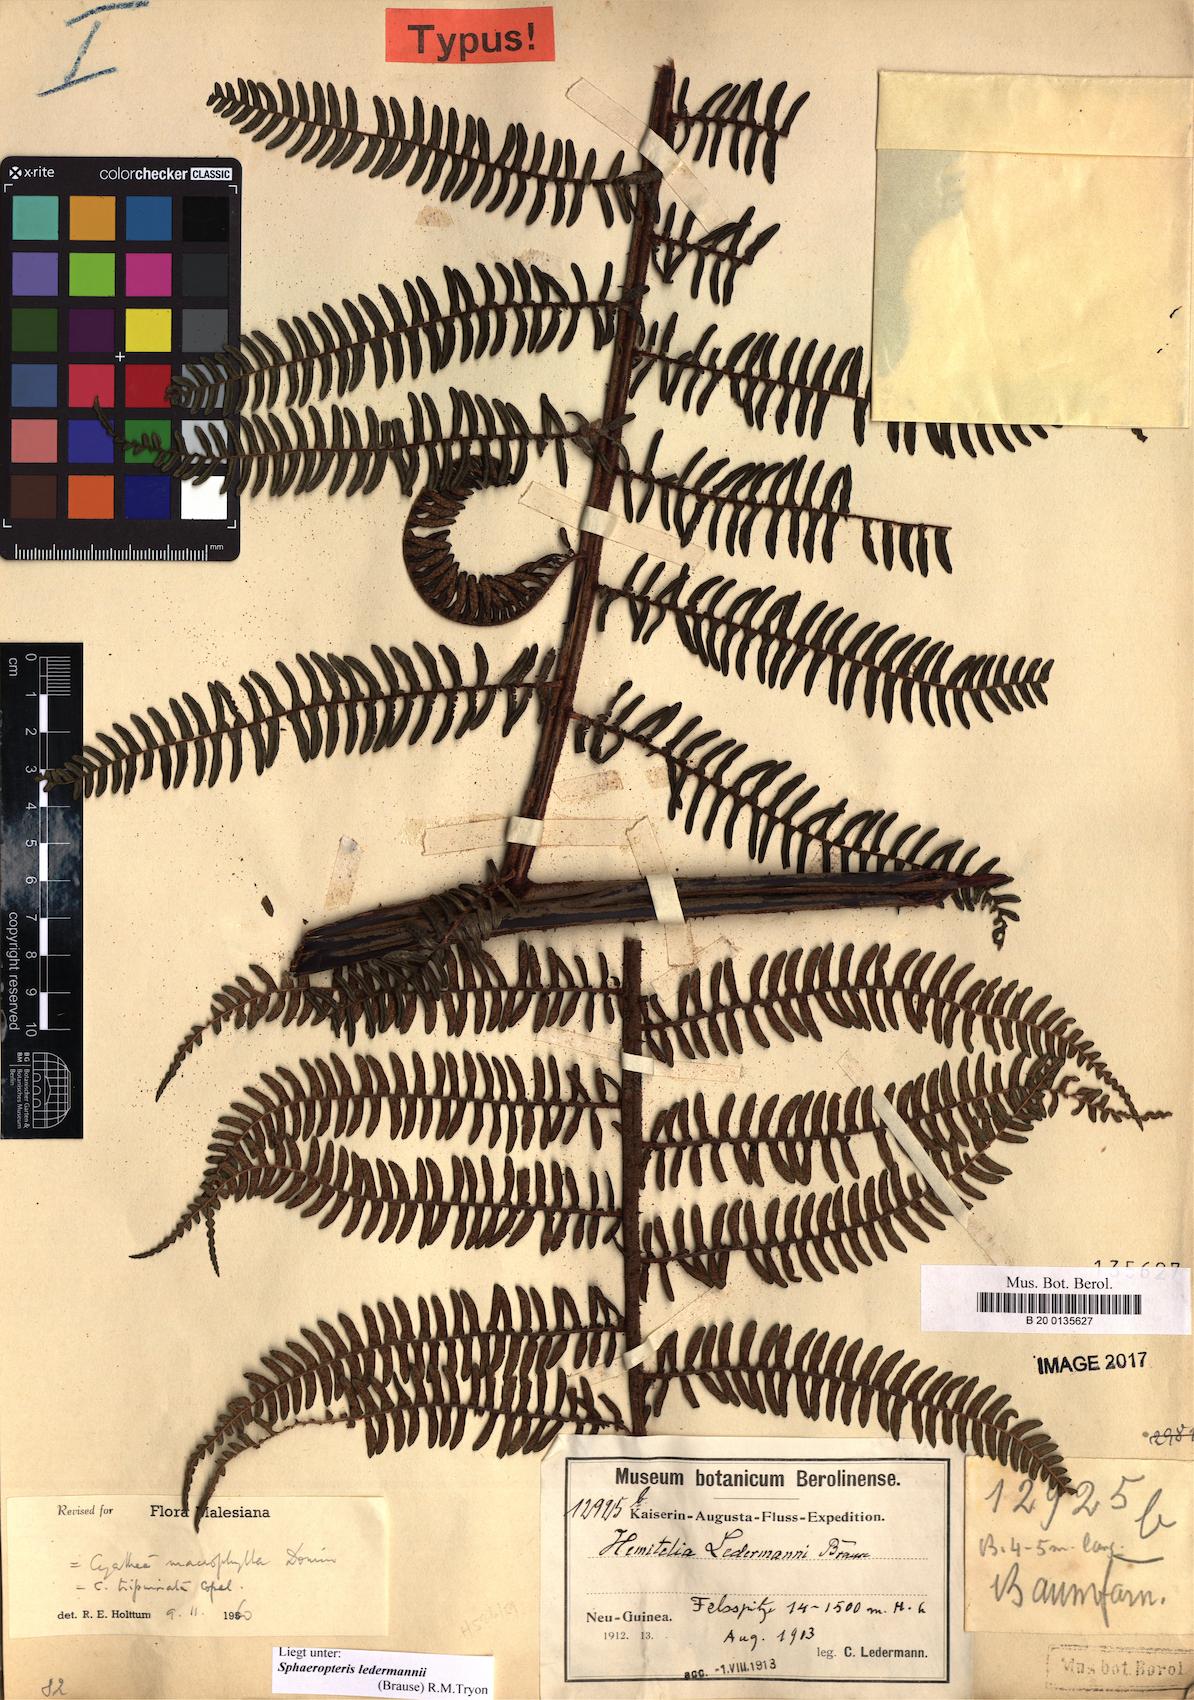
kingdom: Plantae
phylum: Tracheophyta
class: Polypodiopsida
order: Cyatheales
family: Cyatheaceae
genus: Sphaeropteris
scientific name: Sphaeropteris ledermannii
